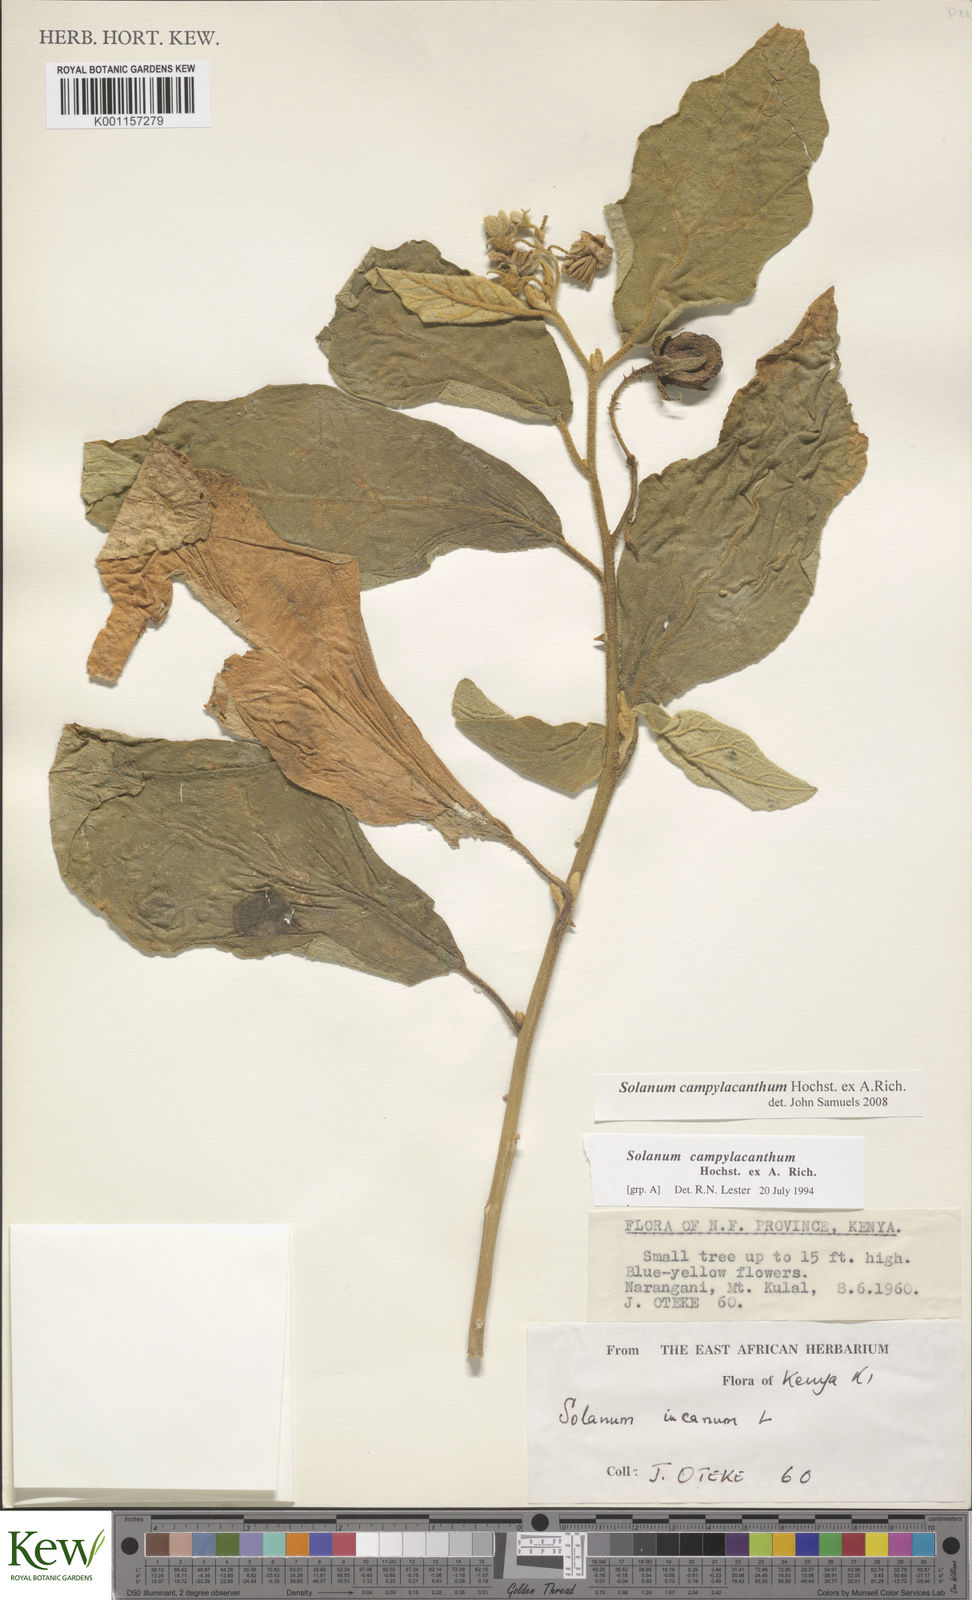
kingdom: Plantae
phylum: Tracheophyta
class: Magnoliopsida
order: Solanales
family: Solanaceae
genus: Solanum
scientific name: Solanum campylacanthum
